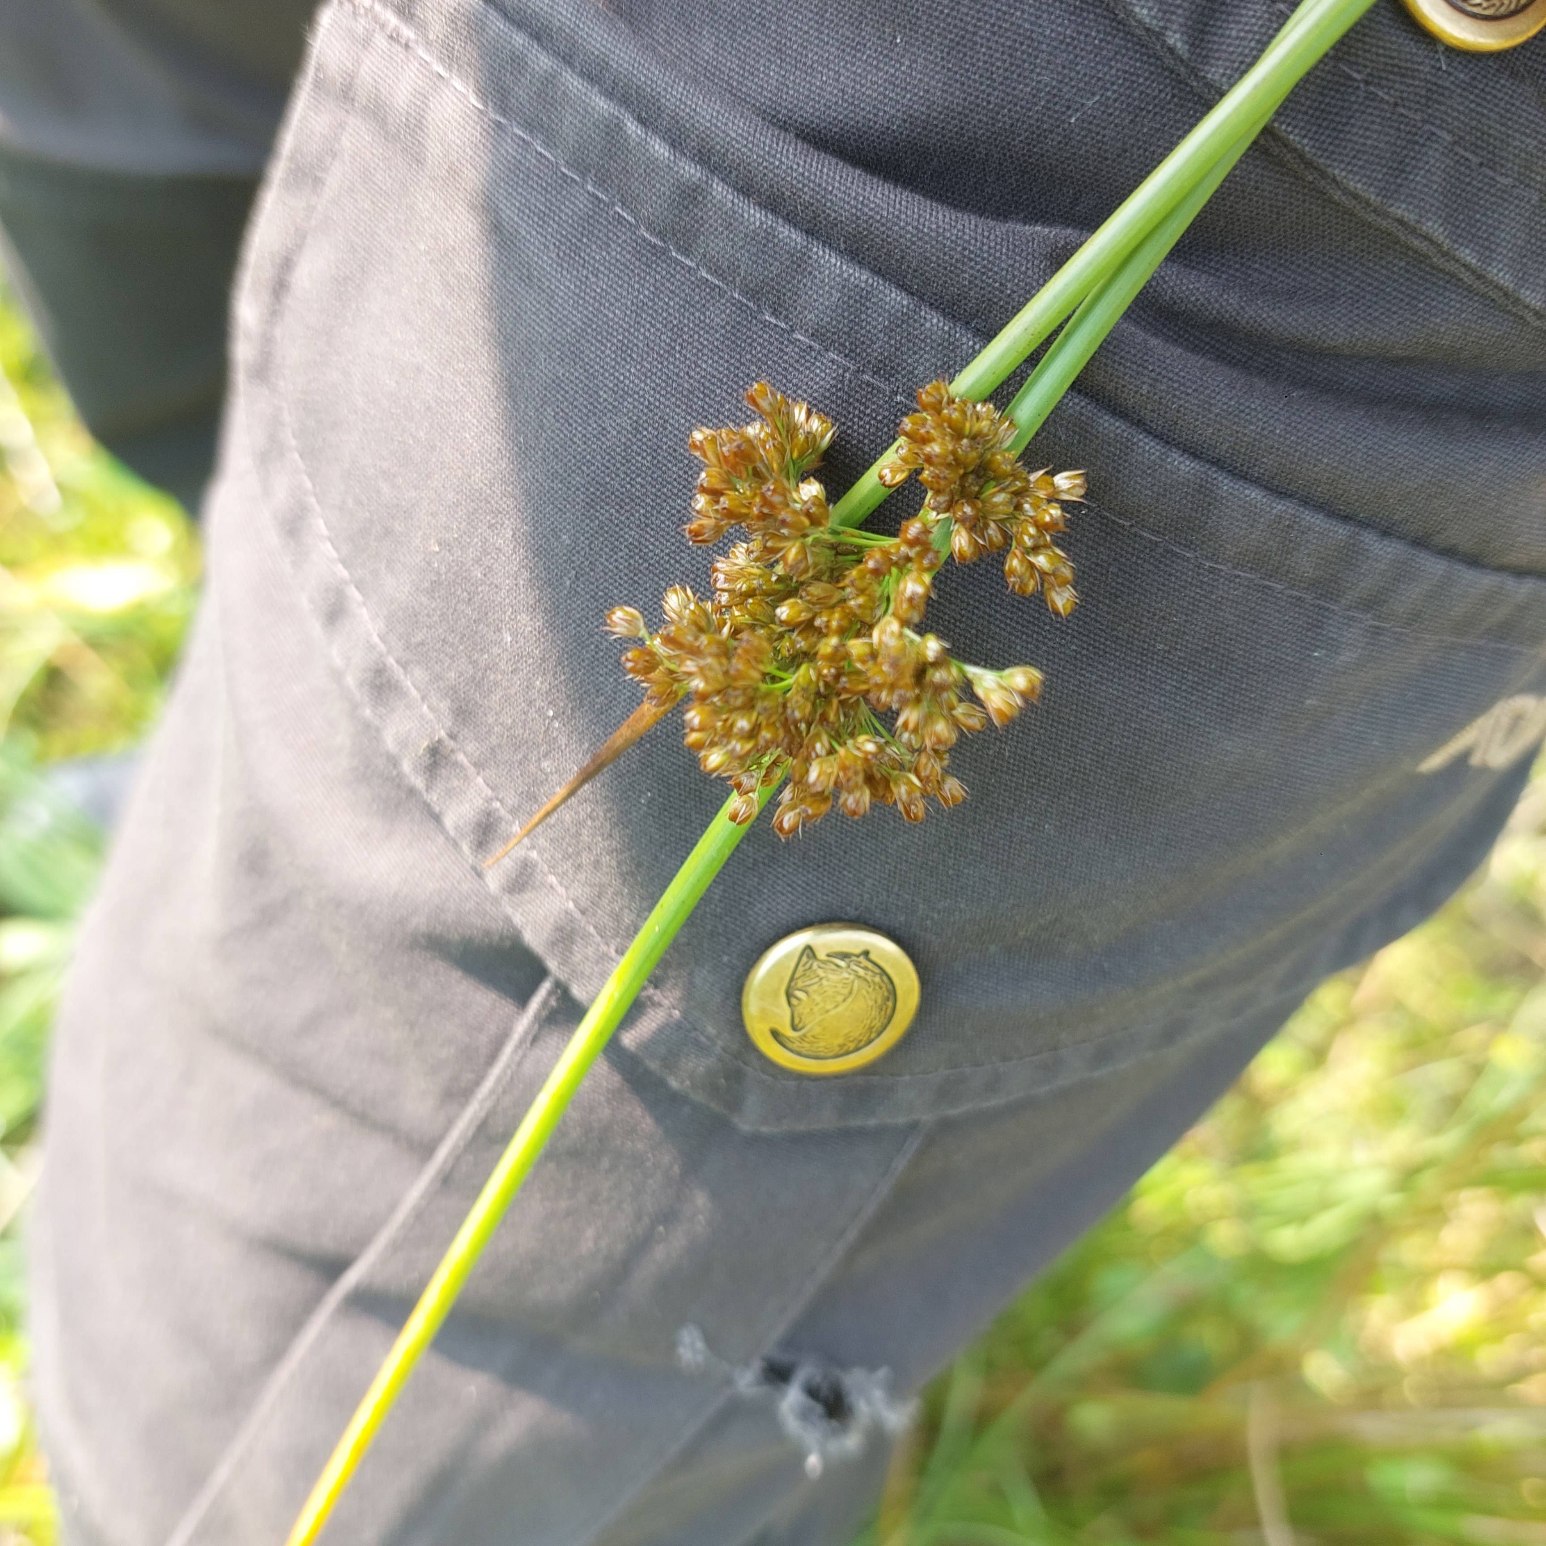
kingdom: Plantae
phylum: Tracheophyta
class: Liliopsida
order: Poales
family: Juncaceae
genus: Juncus
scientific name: Juncus effusus
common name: Lyse-siv
